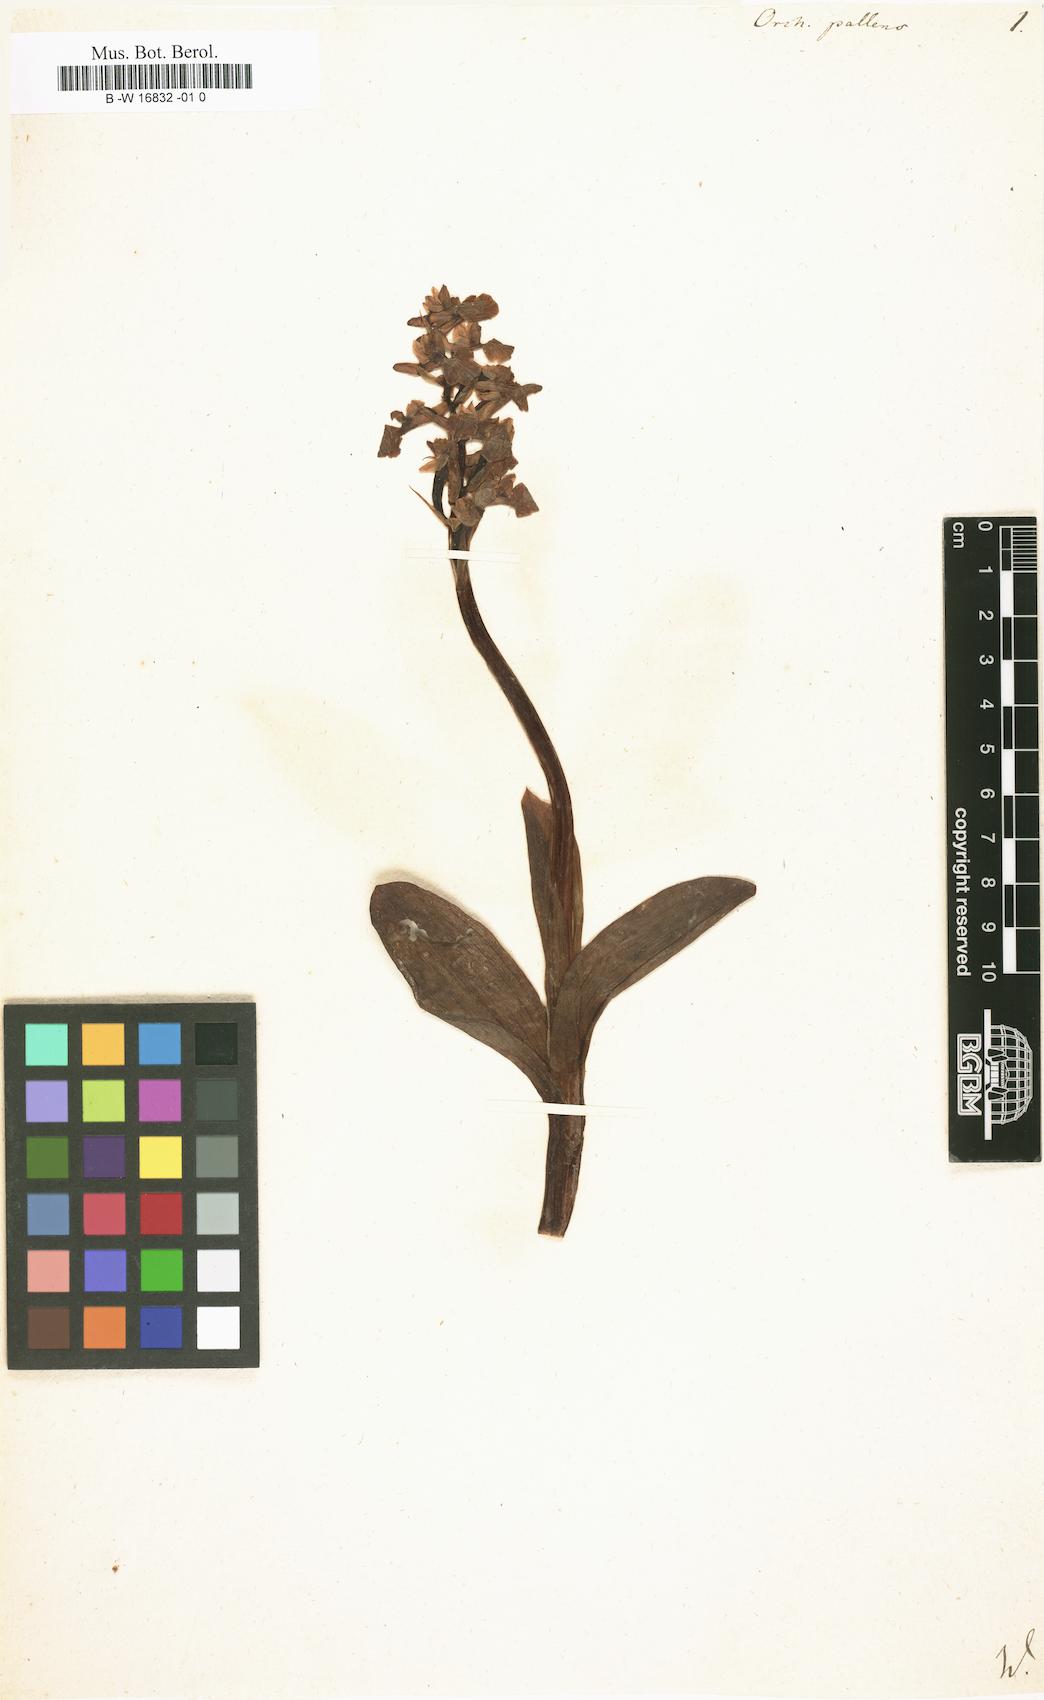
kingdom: Plantae
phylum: Tracheophyta
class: Liliopsida
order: Asparagales
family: Orchidaceae
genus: Orchis
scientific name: Orchis pallens
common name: Pale-flowered orchid
